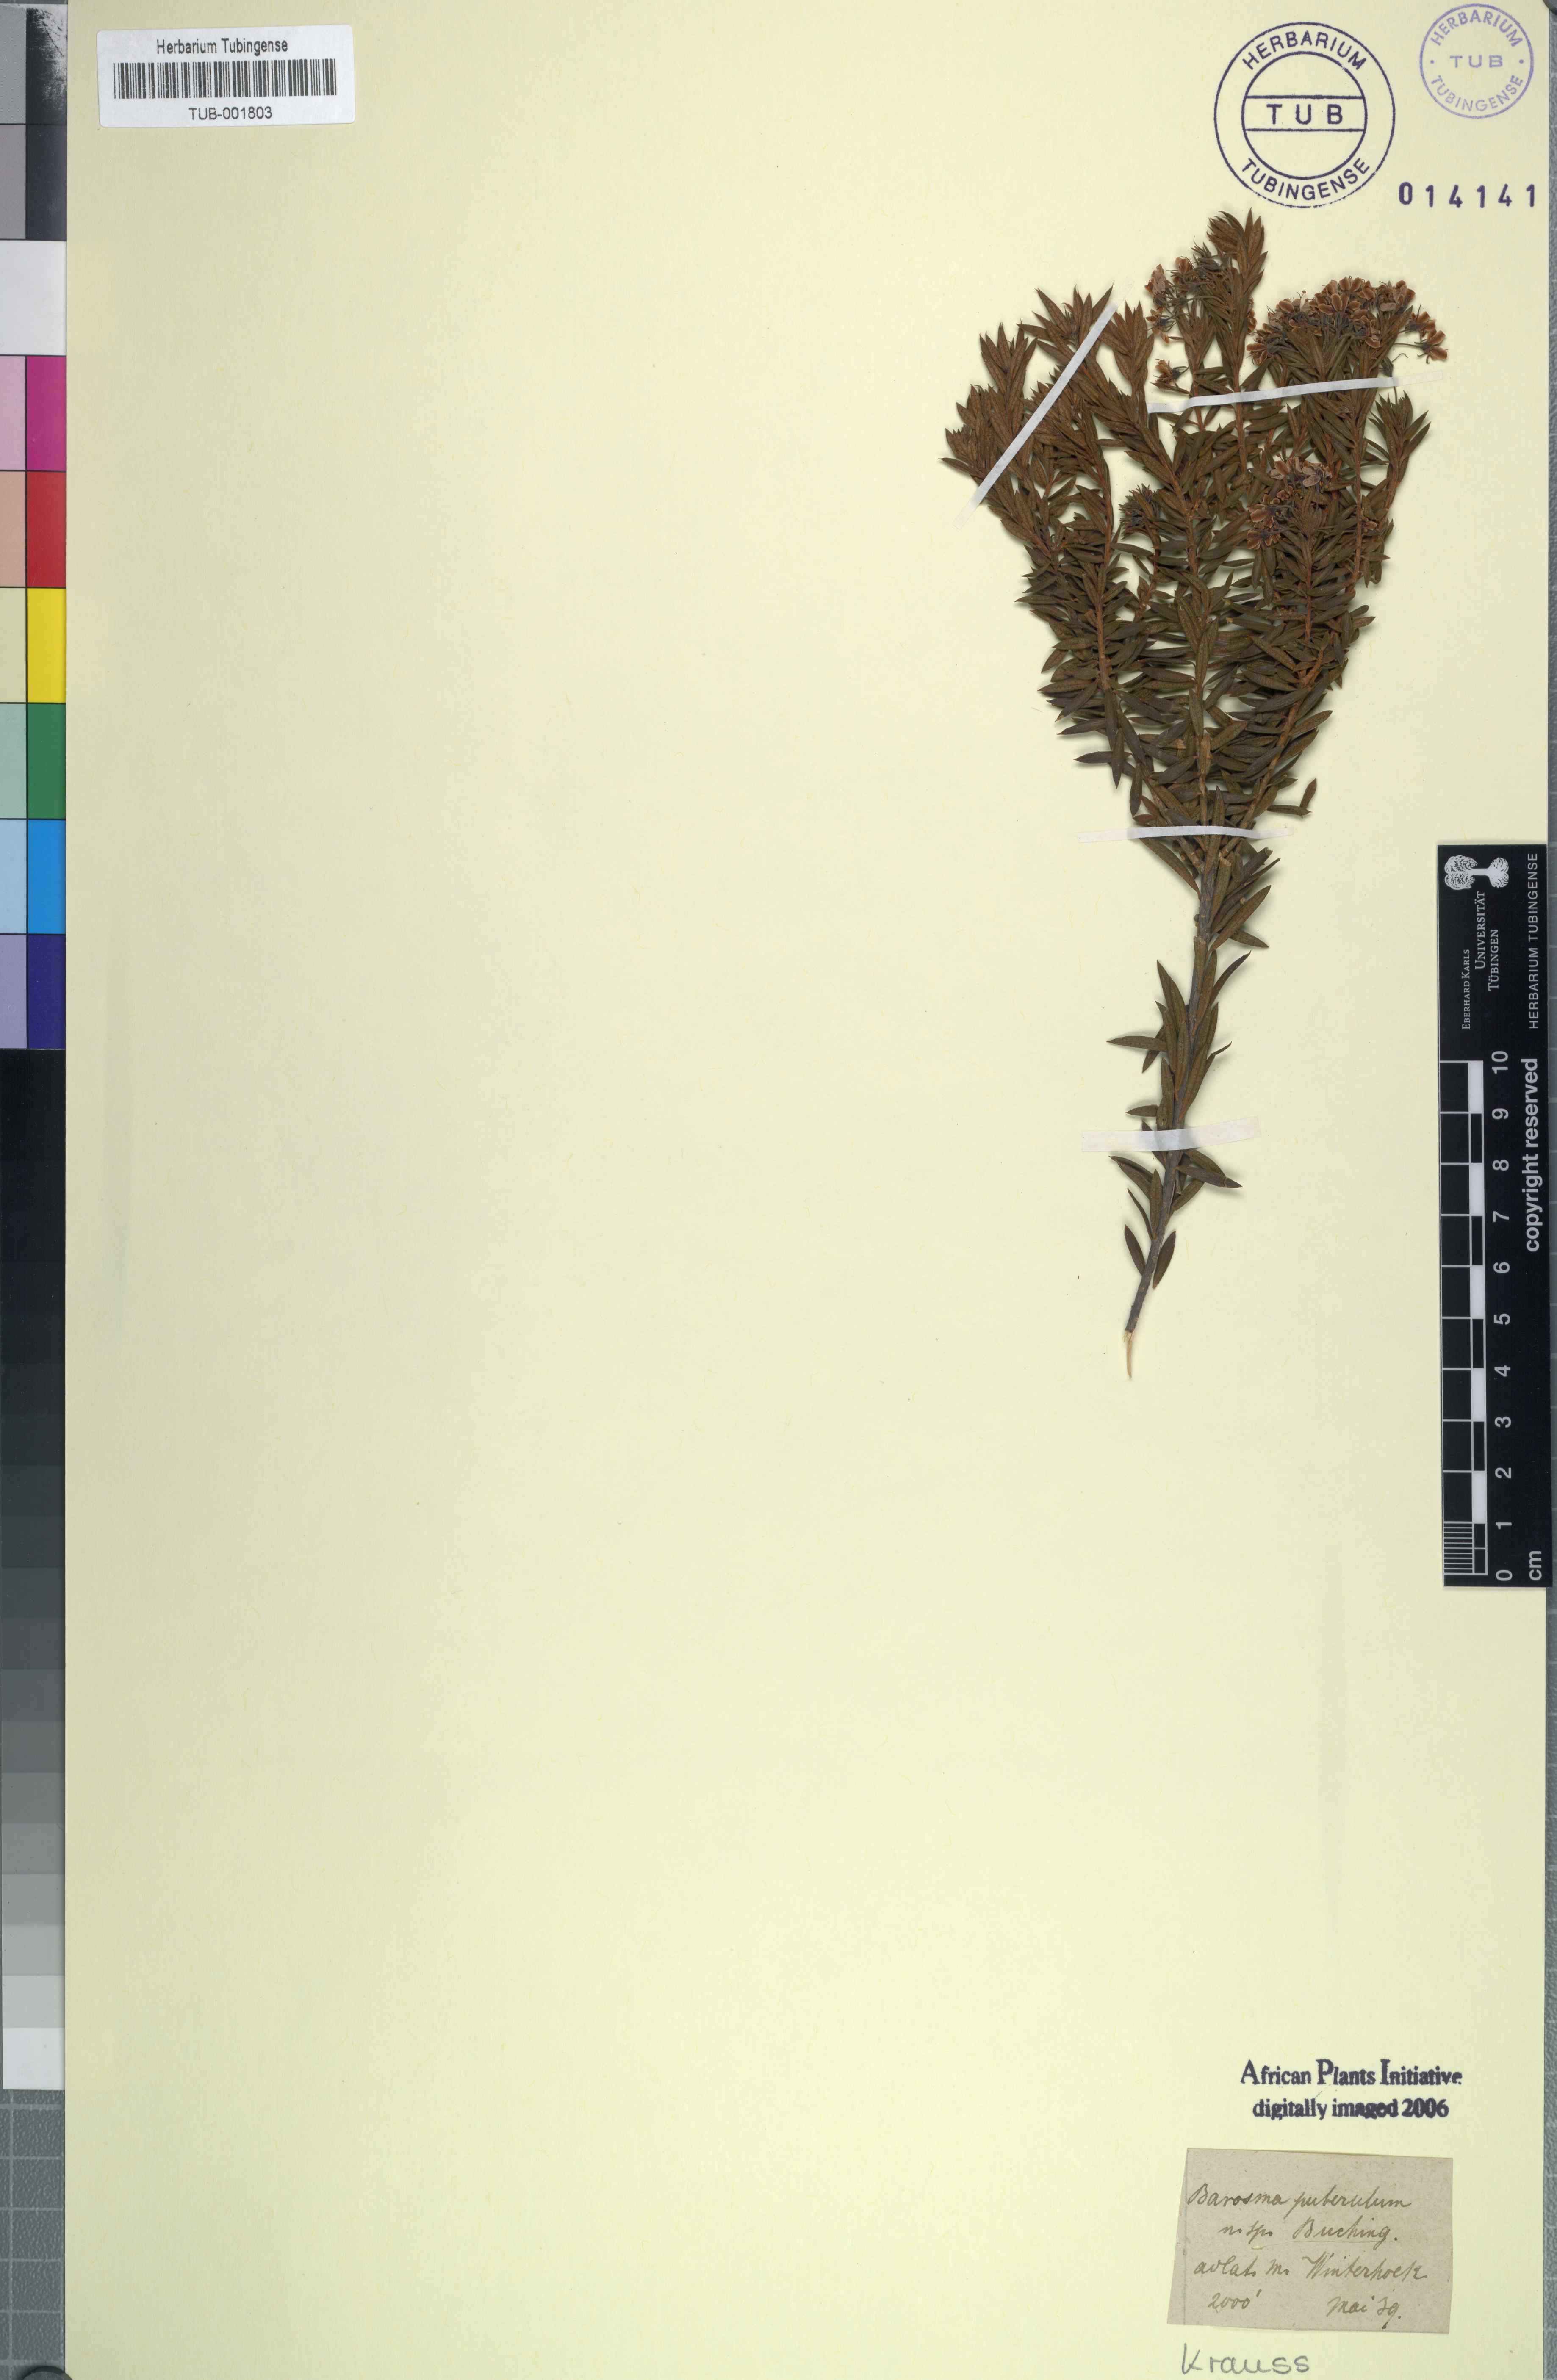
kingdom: Plantae
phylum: Tracheophyta
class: Magnoliopsida
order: Sapindales
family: Rutaceae
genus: Agathosma
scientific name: Agathosma puberula
